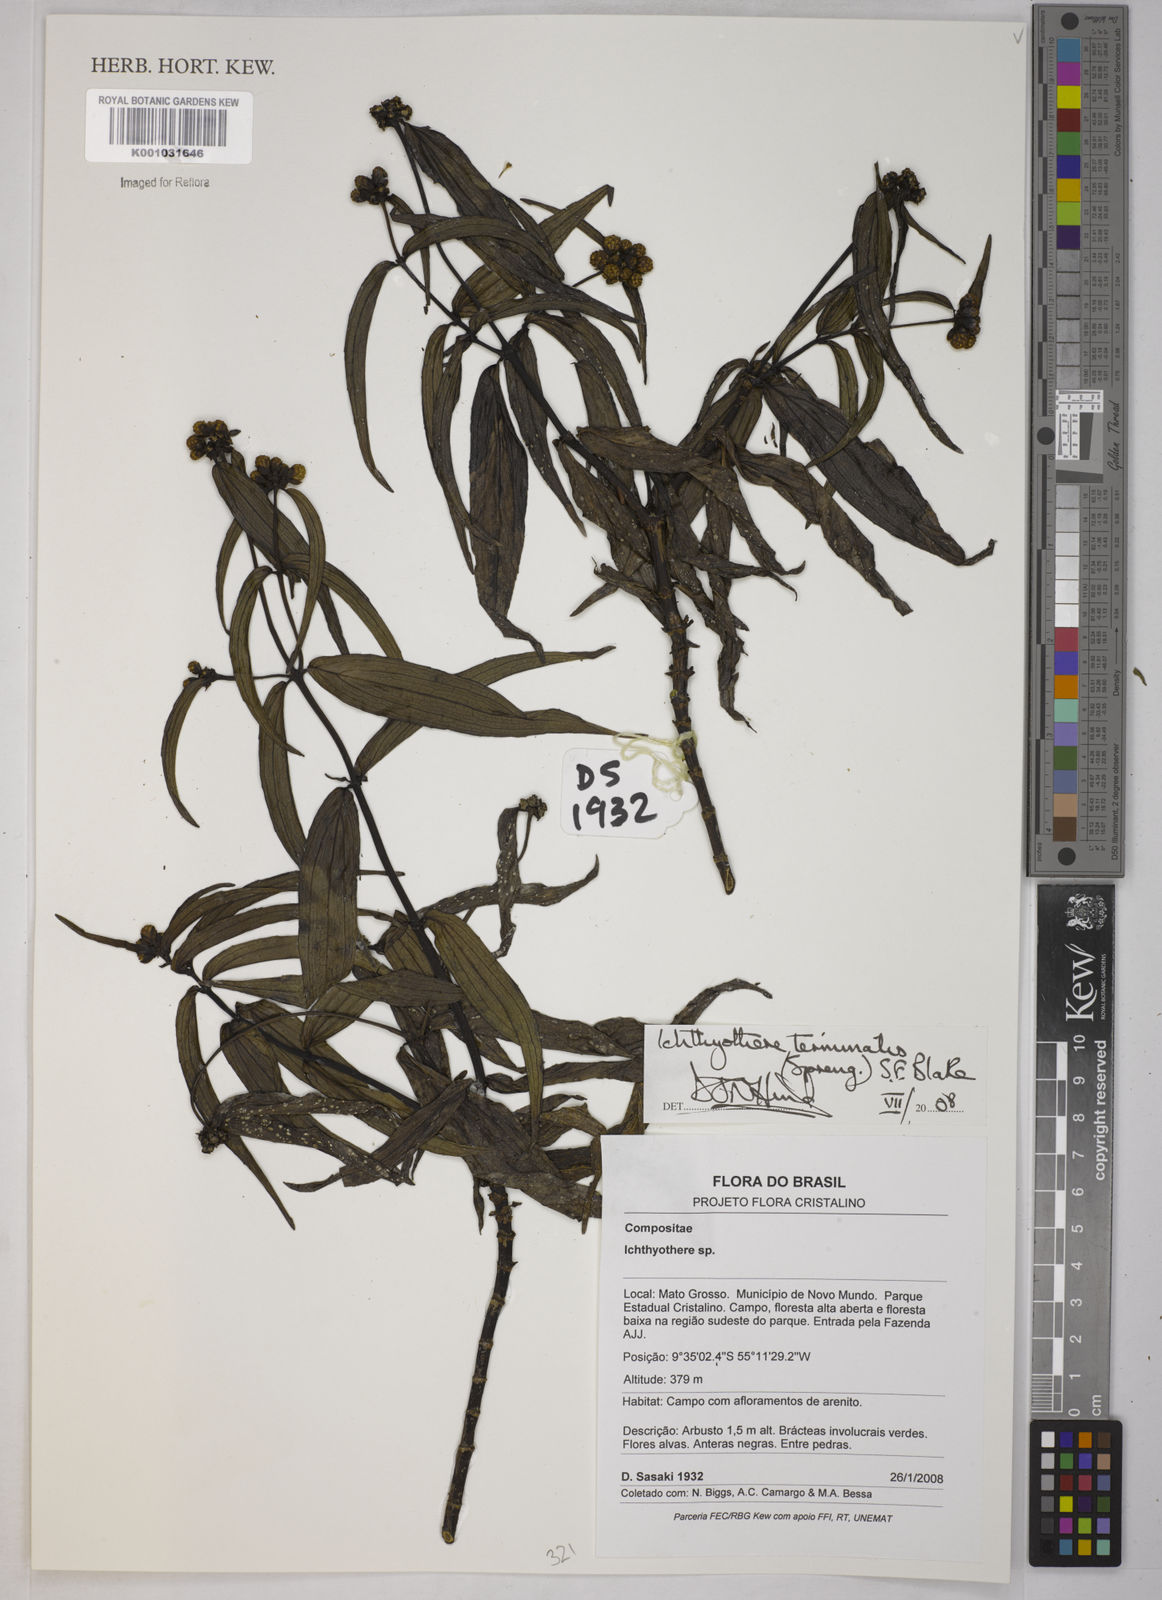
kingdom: Plantae
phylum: Tracheophyta
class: Magnoliopsida
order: Asterales
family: Asteraceae
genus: Ichthyothere
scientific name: Ichthyothere terminalis
